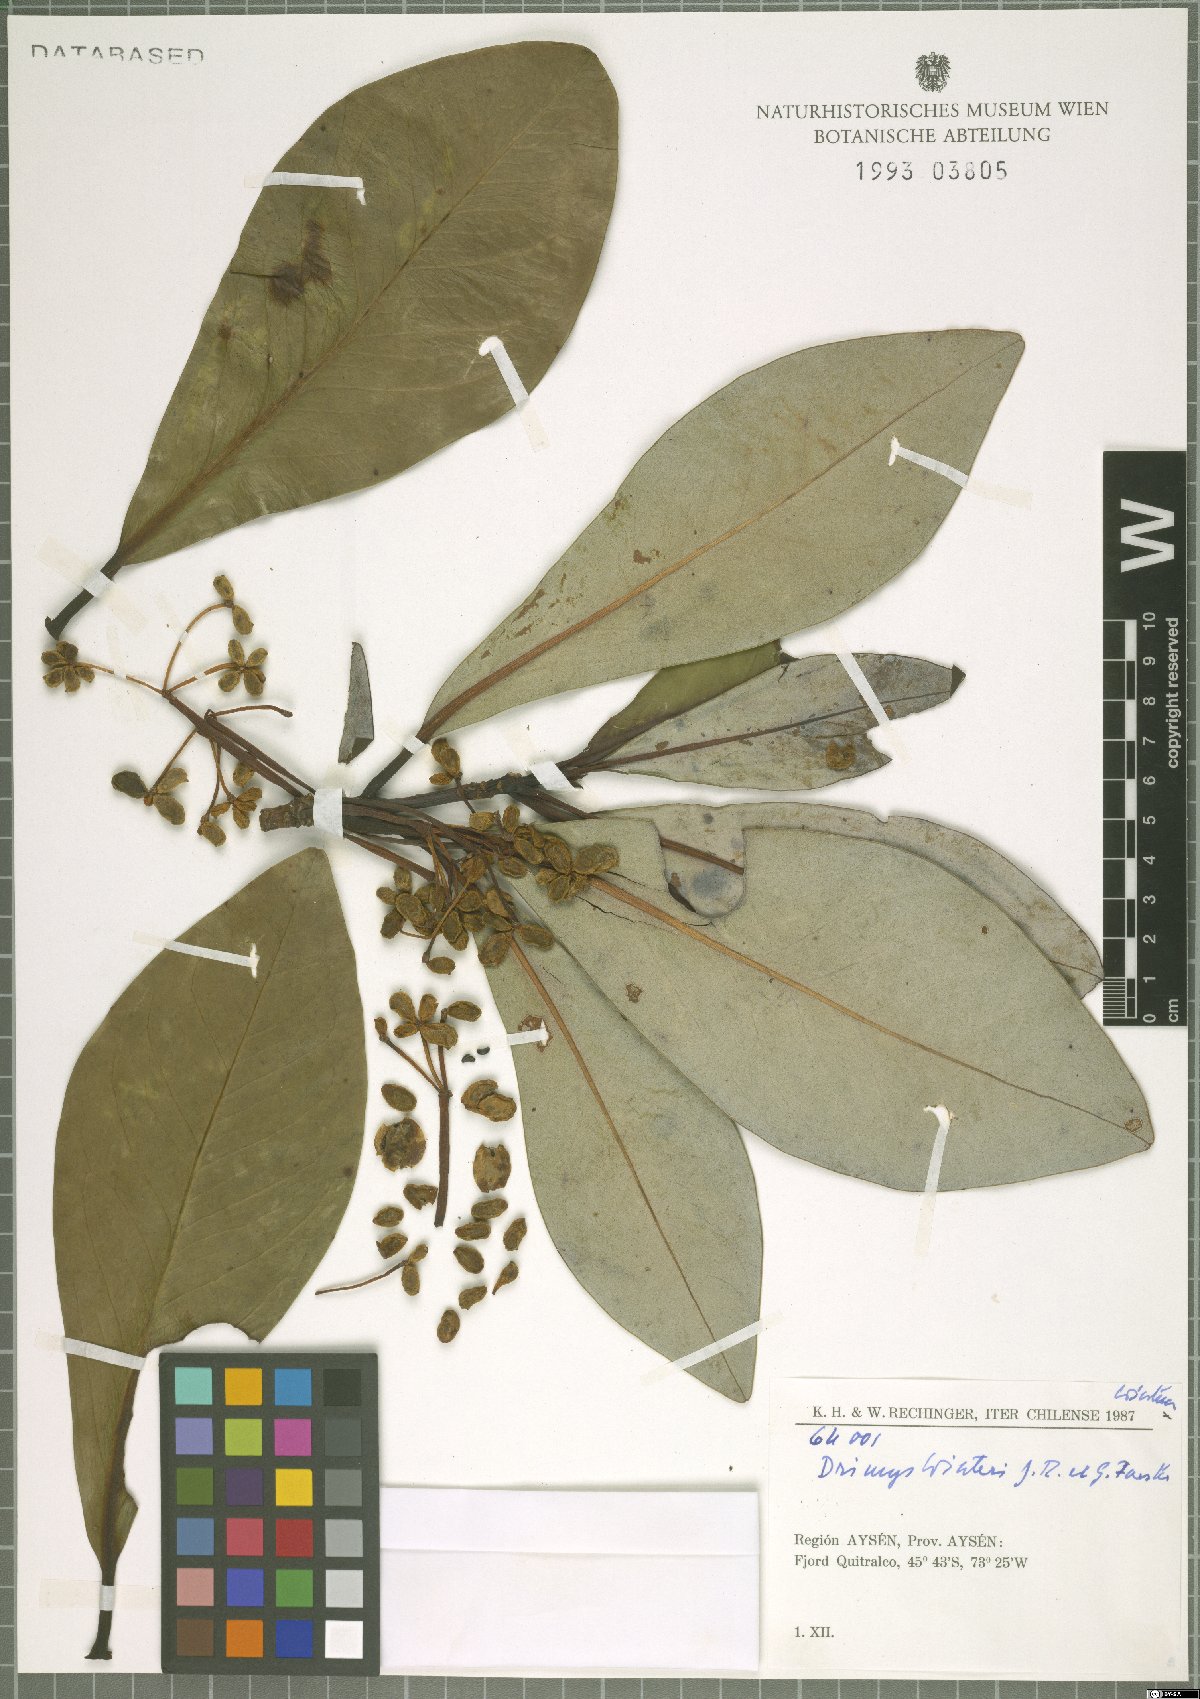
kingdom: Plantae
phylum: Tracheophyta
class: Magnoliopsida
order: Canellales
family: Winteraceae
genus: Drimys
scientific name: Drimys winteri
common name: Winter's-bark
